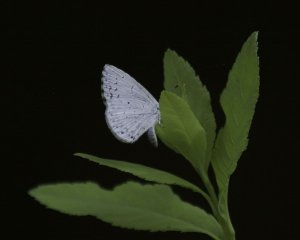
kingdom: Animalia
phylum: Arthropoda
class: Insecta
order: Lepidoptera
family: Lycaenidae
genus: Cyaniris
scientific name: Cyaniris neglecta
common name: Summer Azure
